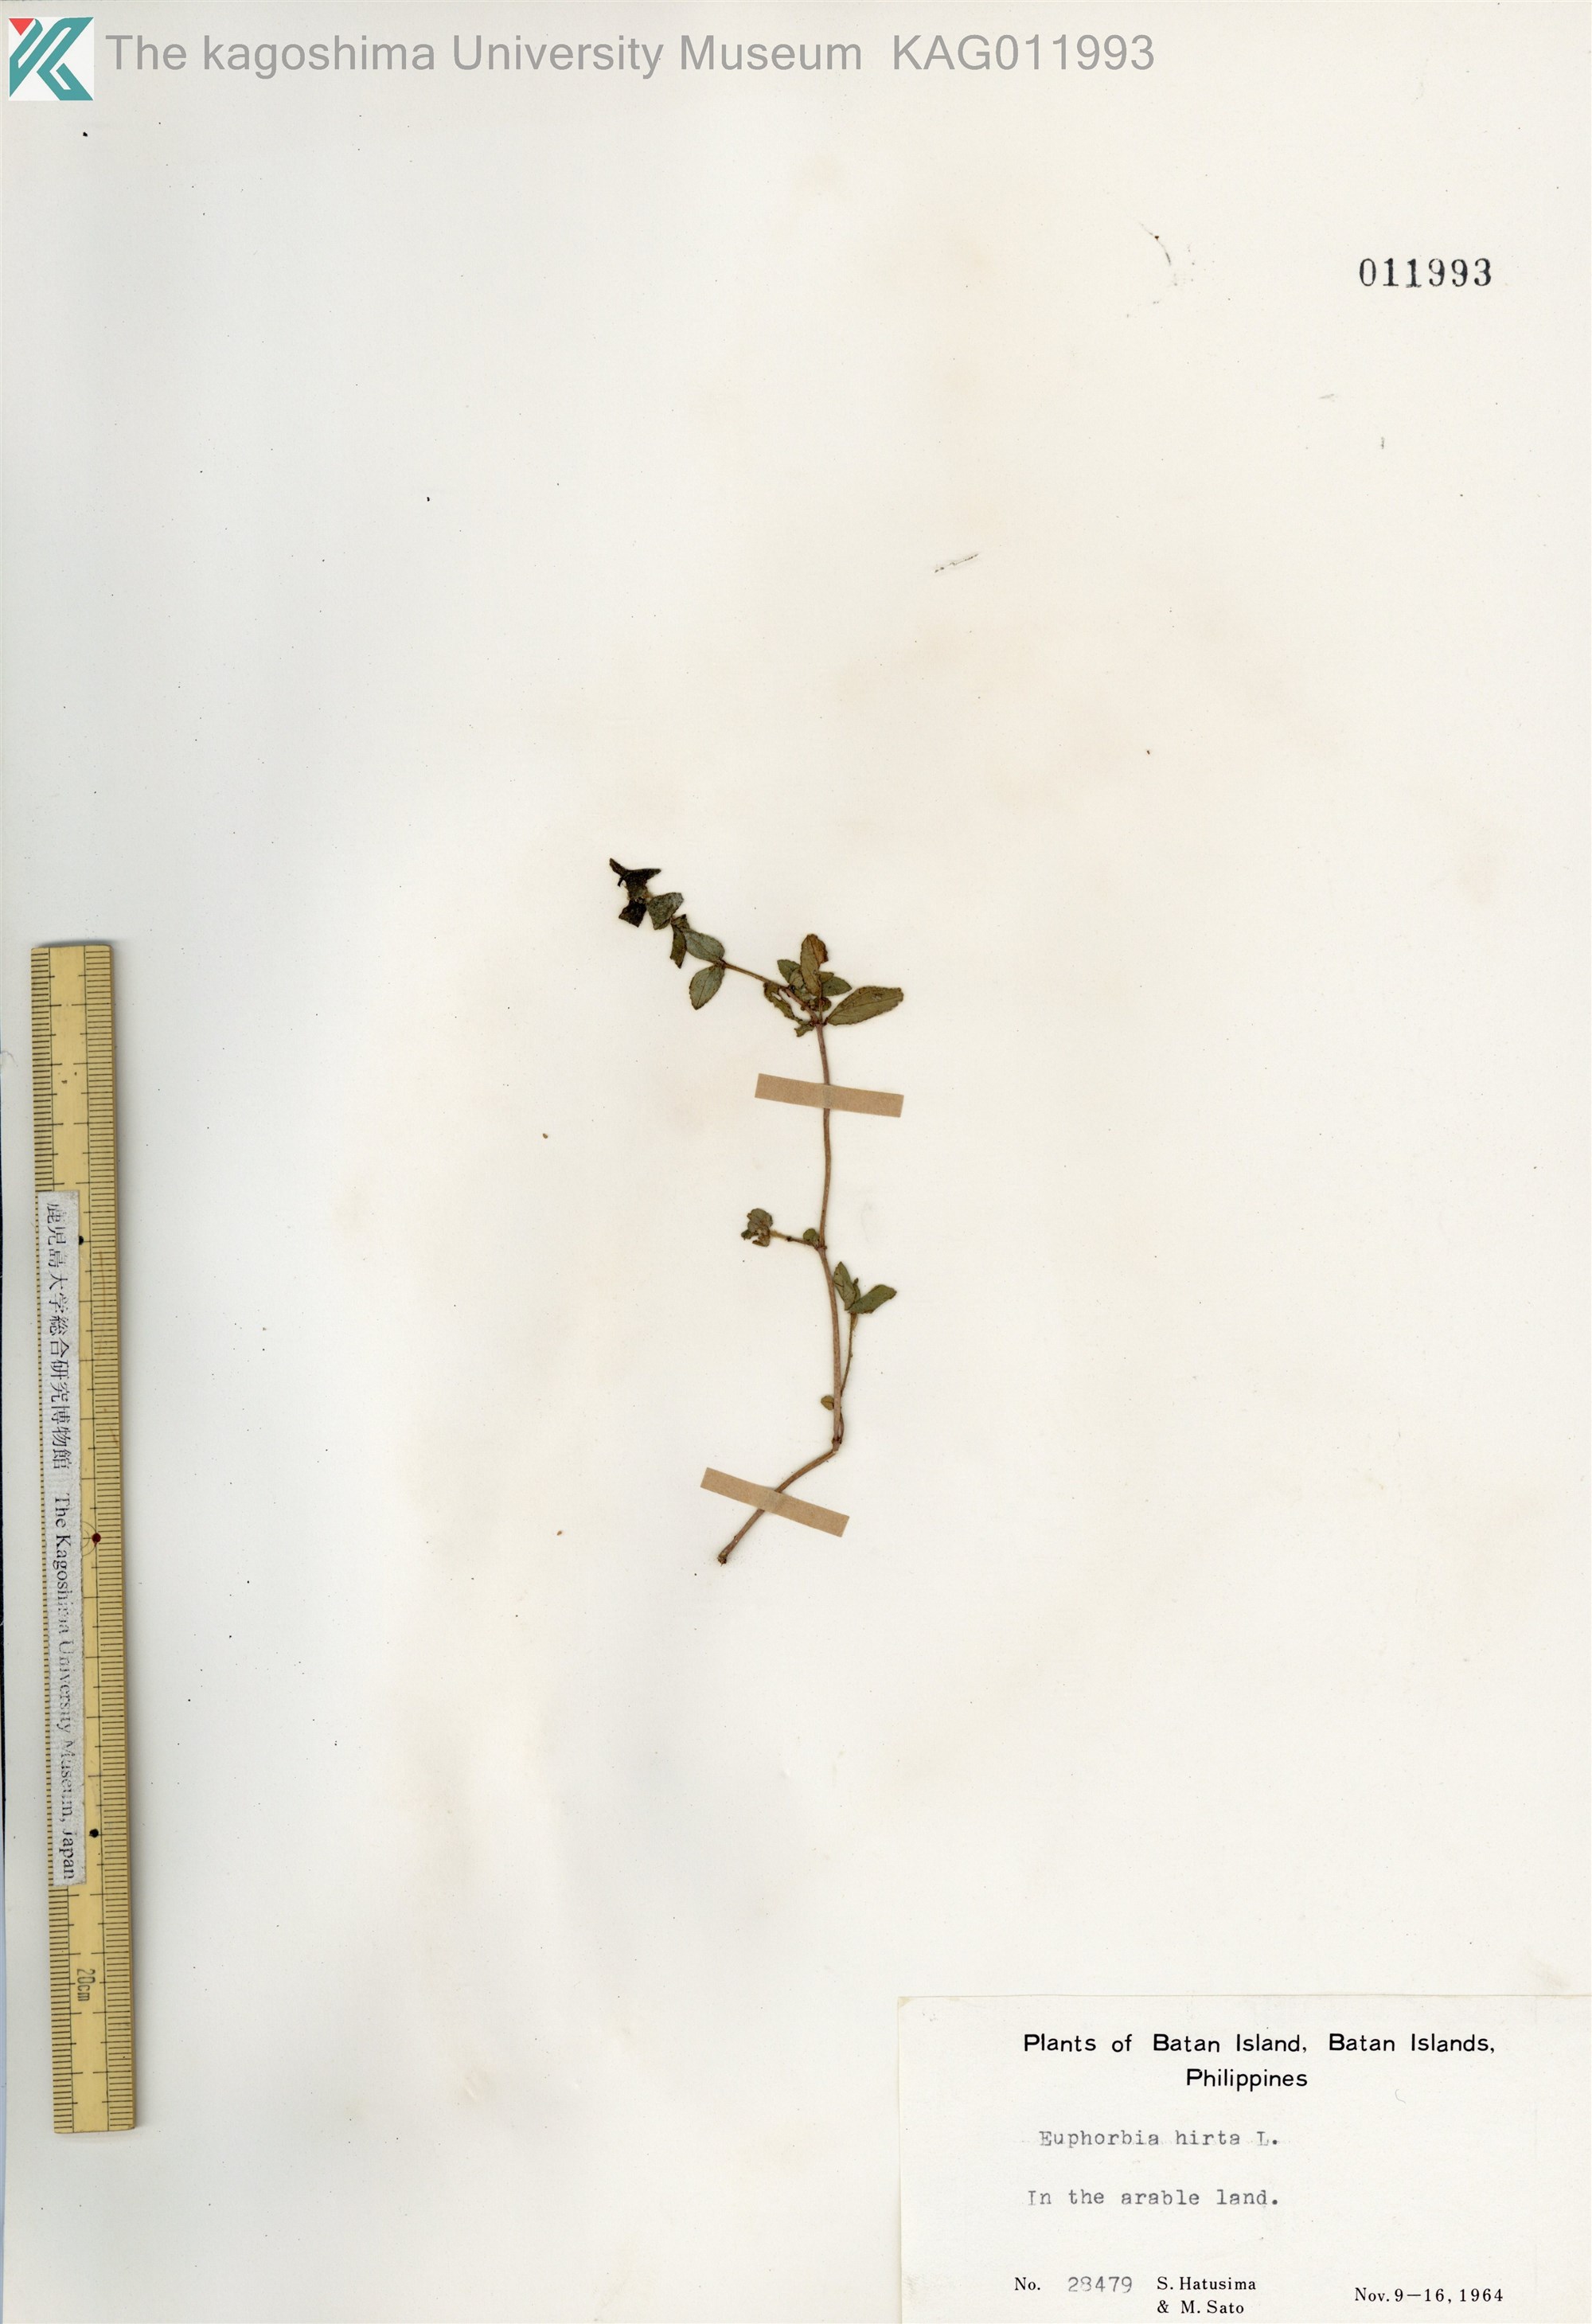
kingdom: Plantae
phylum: Tracheophyta
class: Magnoliopsida
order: Malpighiales
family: Euphorbiaceae
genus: Euphorbia
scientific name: Euphorbia hirta
